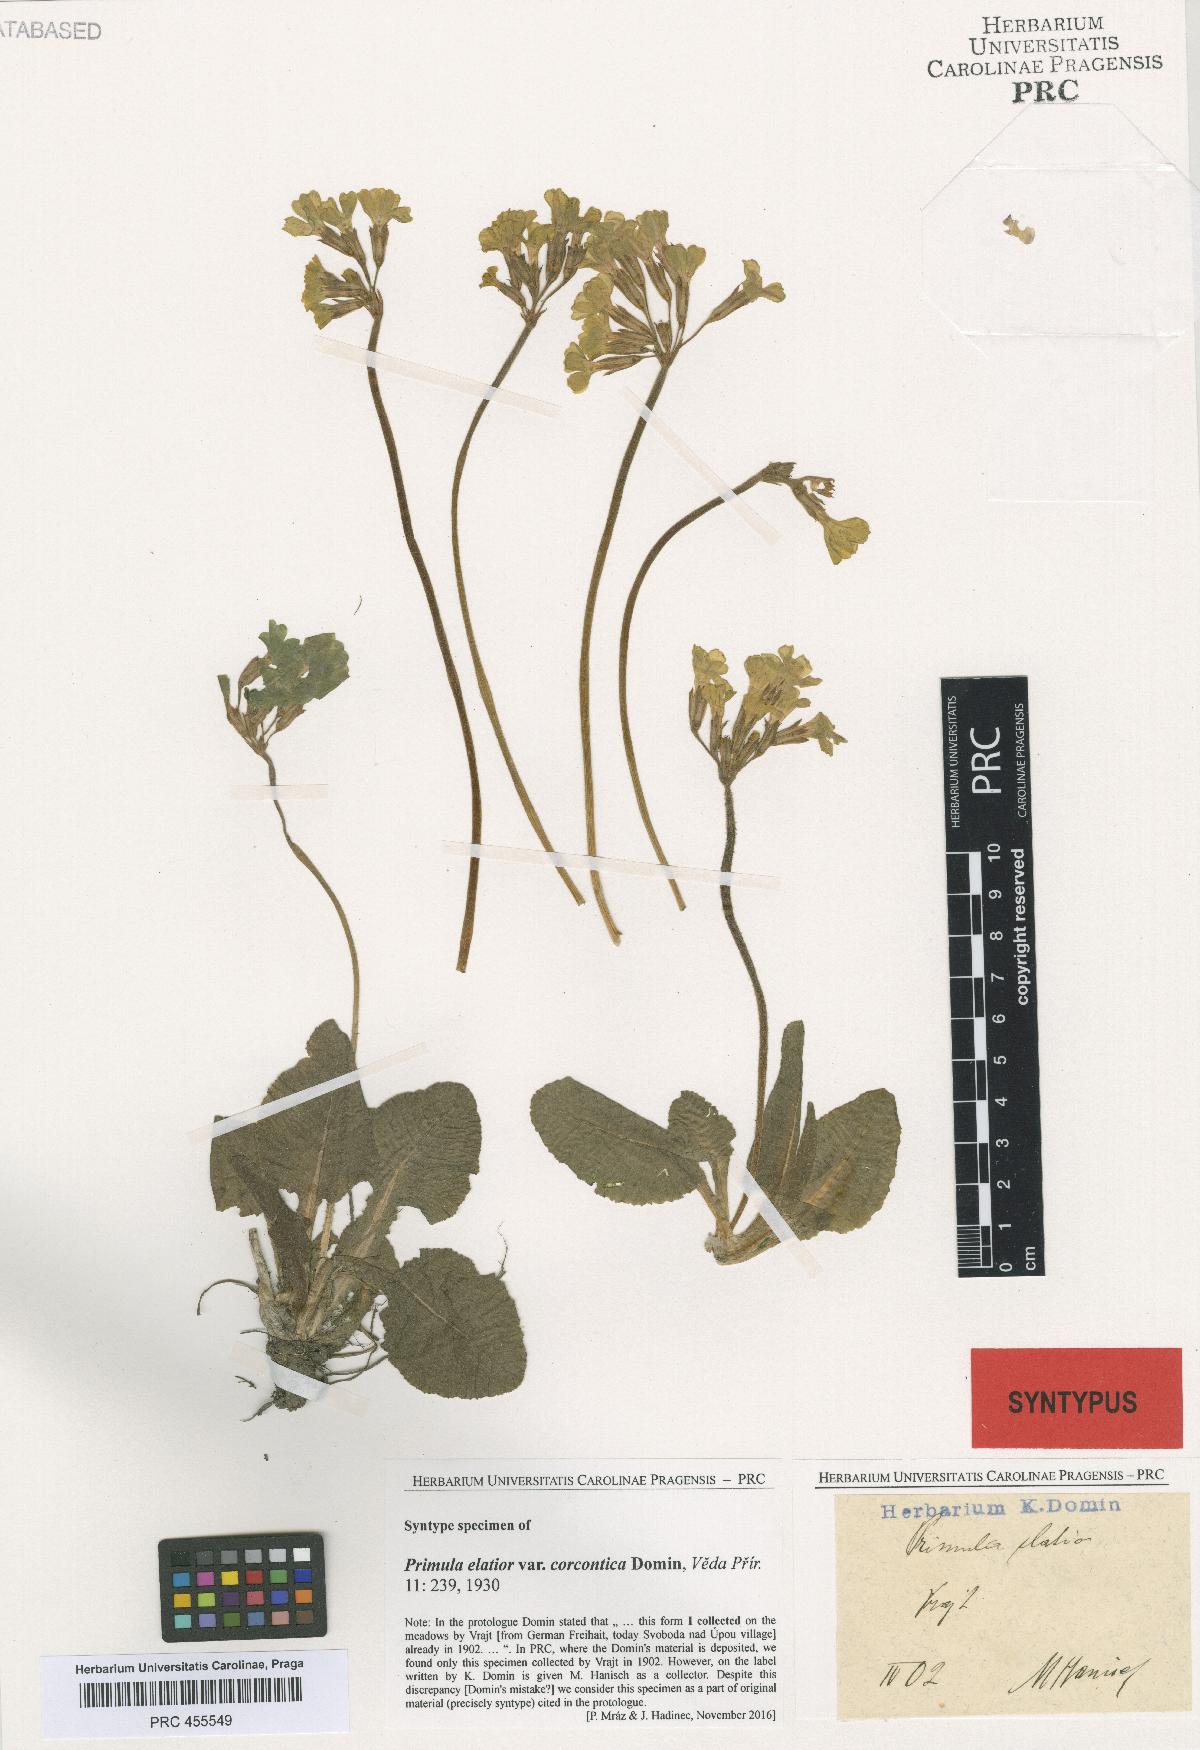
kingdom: Plantae
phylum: Tracheophyta
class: Magnoliopsida
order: Ericales
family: Primulaceae
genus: Primula
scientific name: Primula elatior
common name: Oxlip
